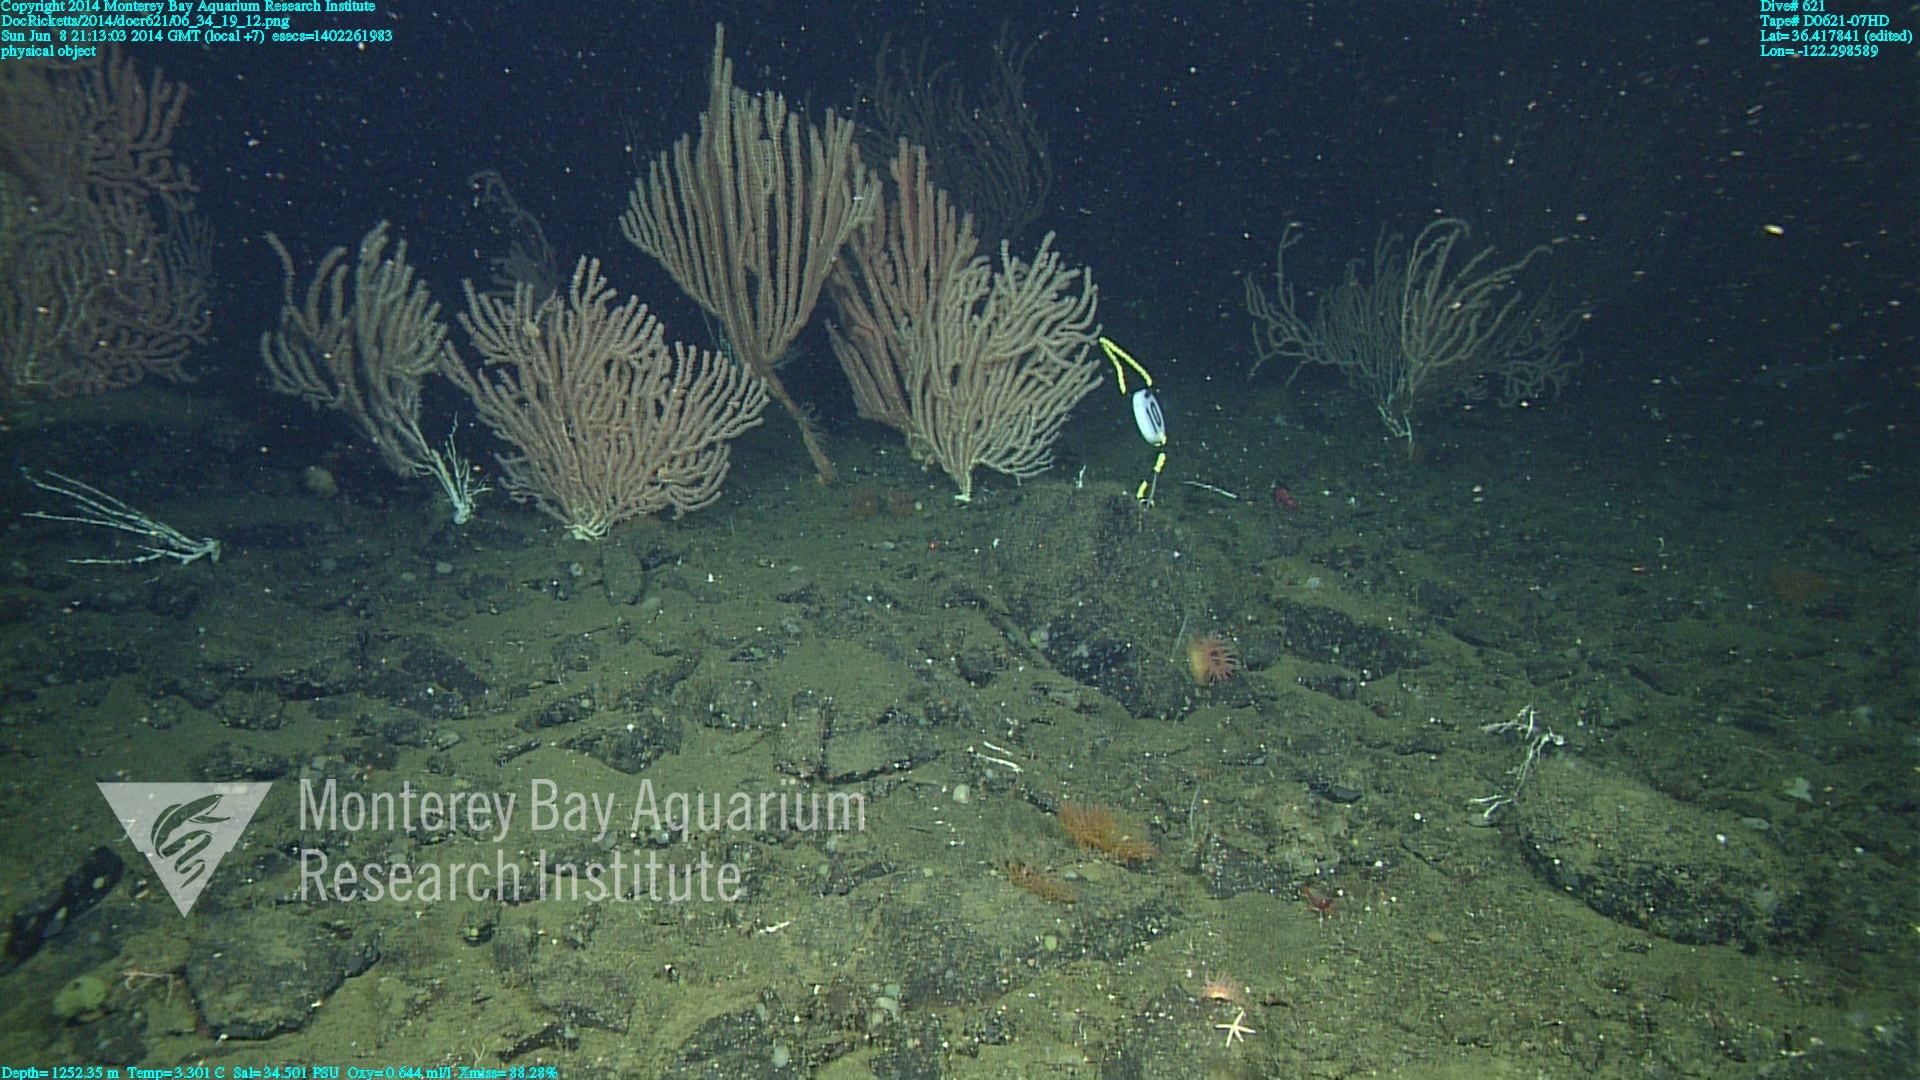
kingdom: Animalia
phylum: Cnidaria
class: Anthozoa
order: Scleralcyonacea
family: Keratoisididae
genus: Keratoisis
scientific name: Keratoisis
